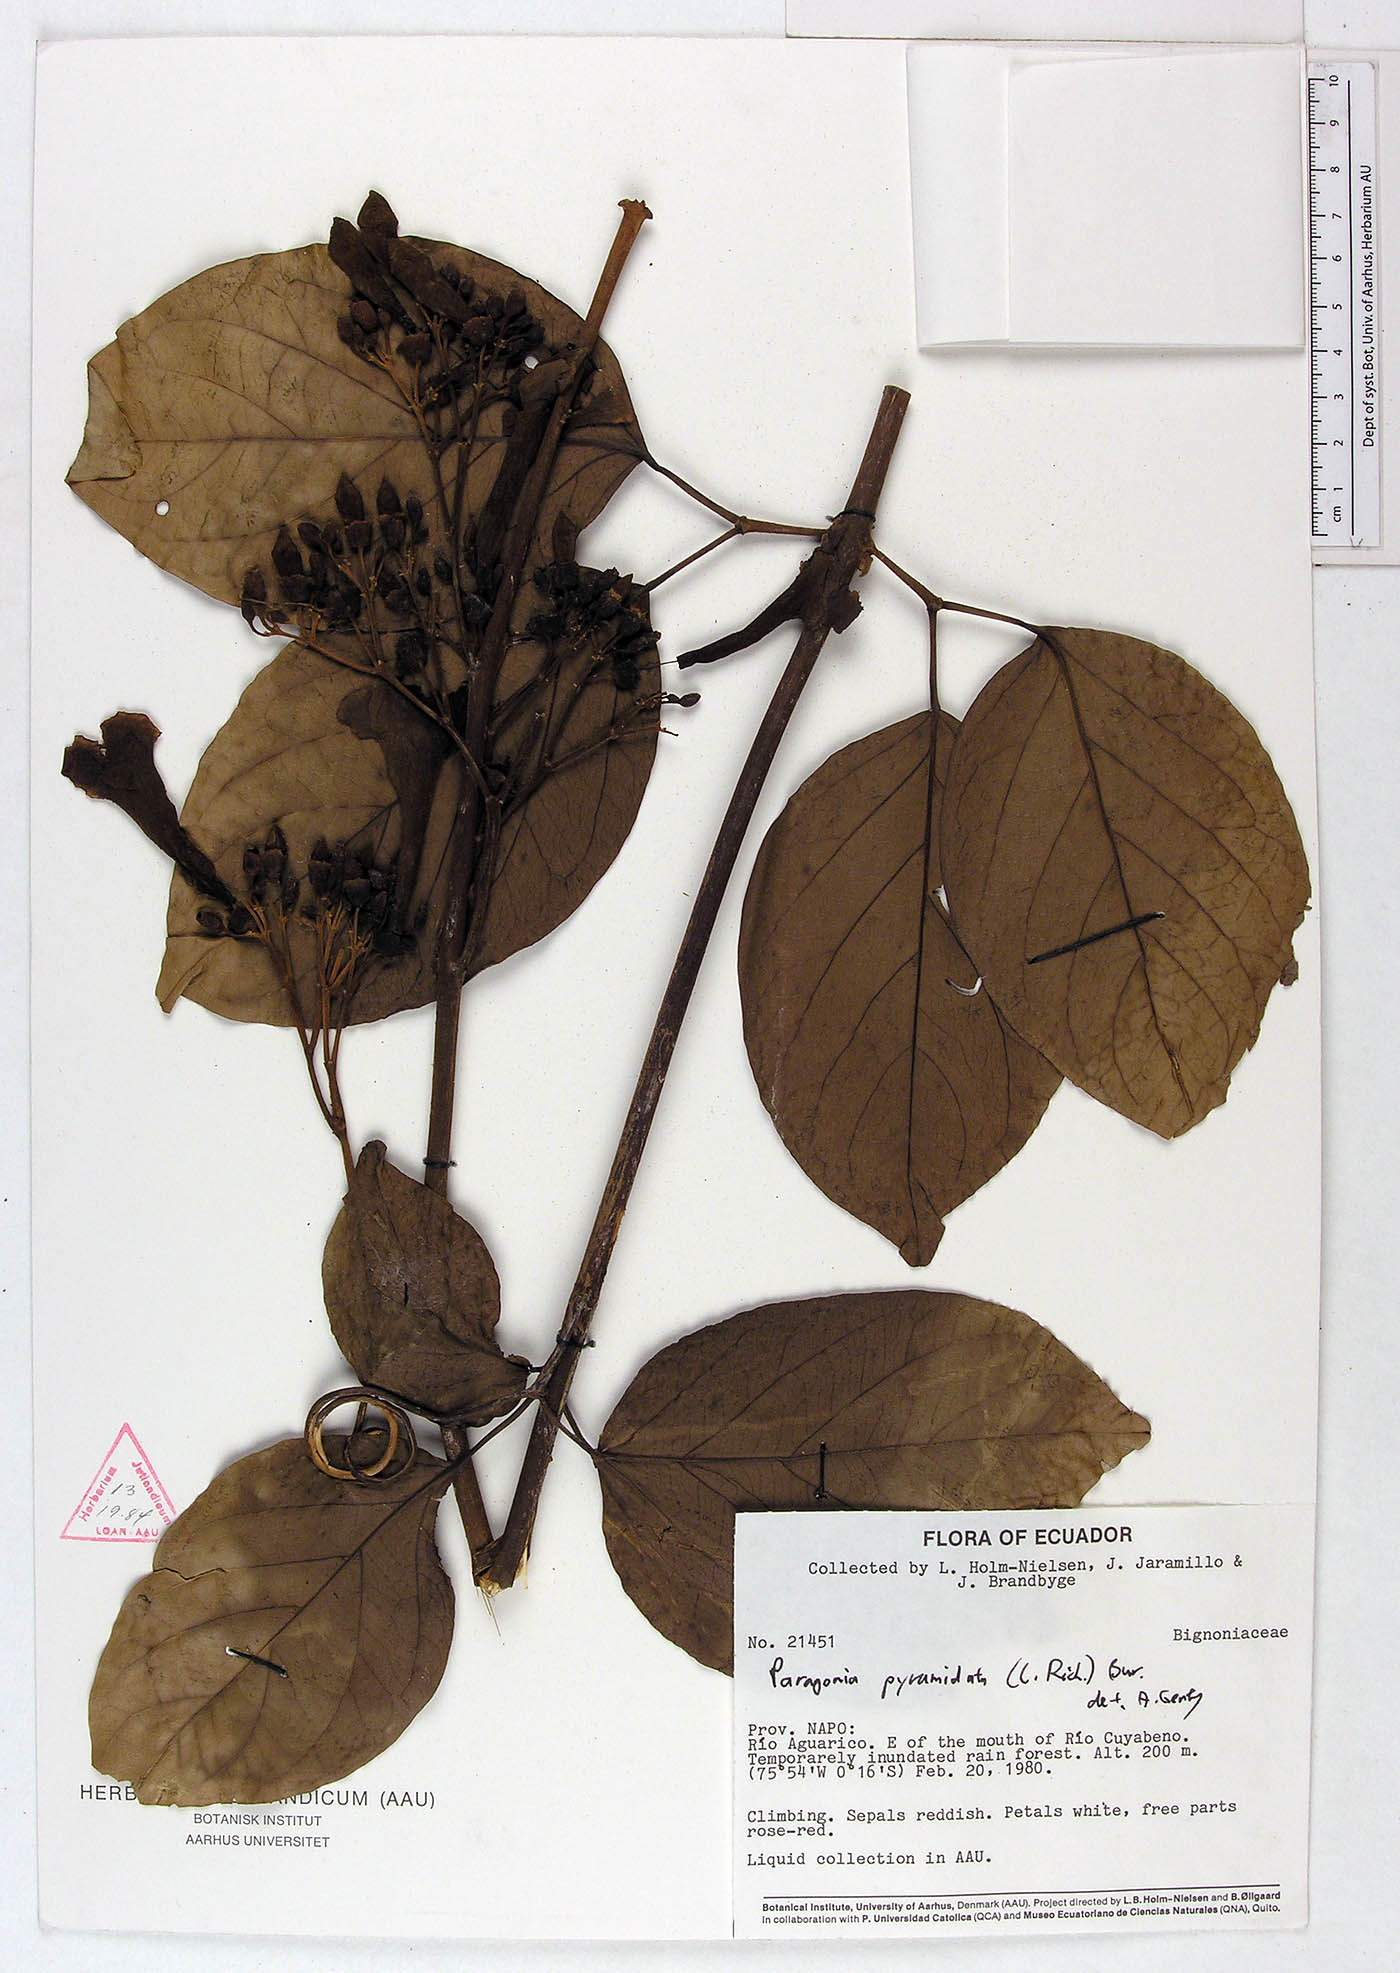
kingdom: Plantae
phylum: Tracheophyta
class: Magnoliopsida
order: Lamiales
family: Bignoniaceae
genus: Tanaecium
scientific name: Tanaecium pyramidatum
